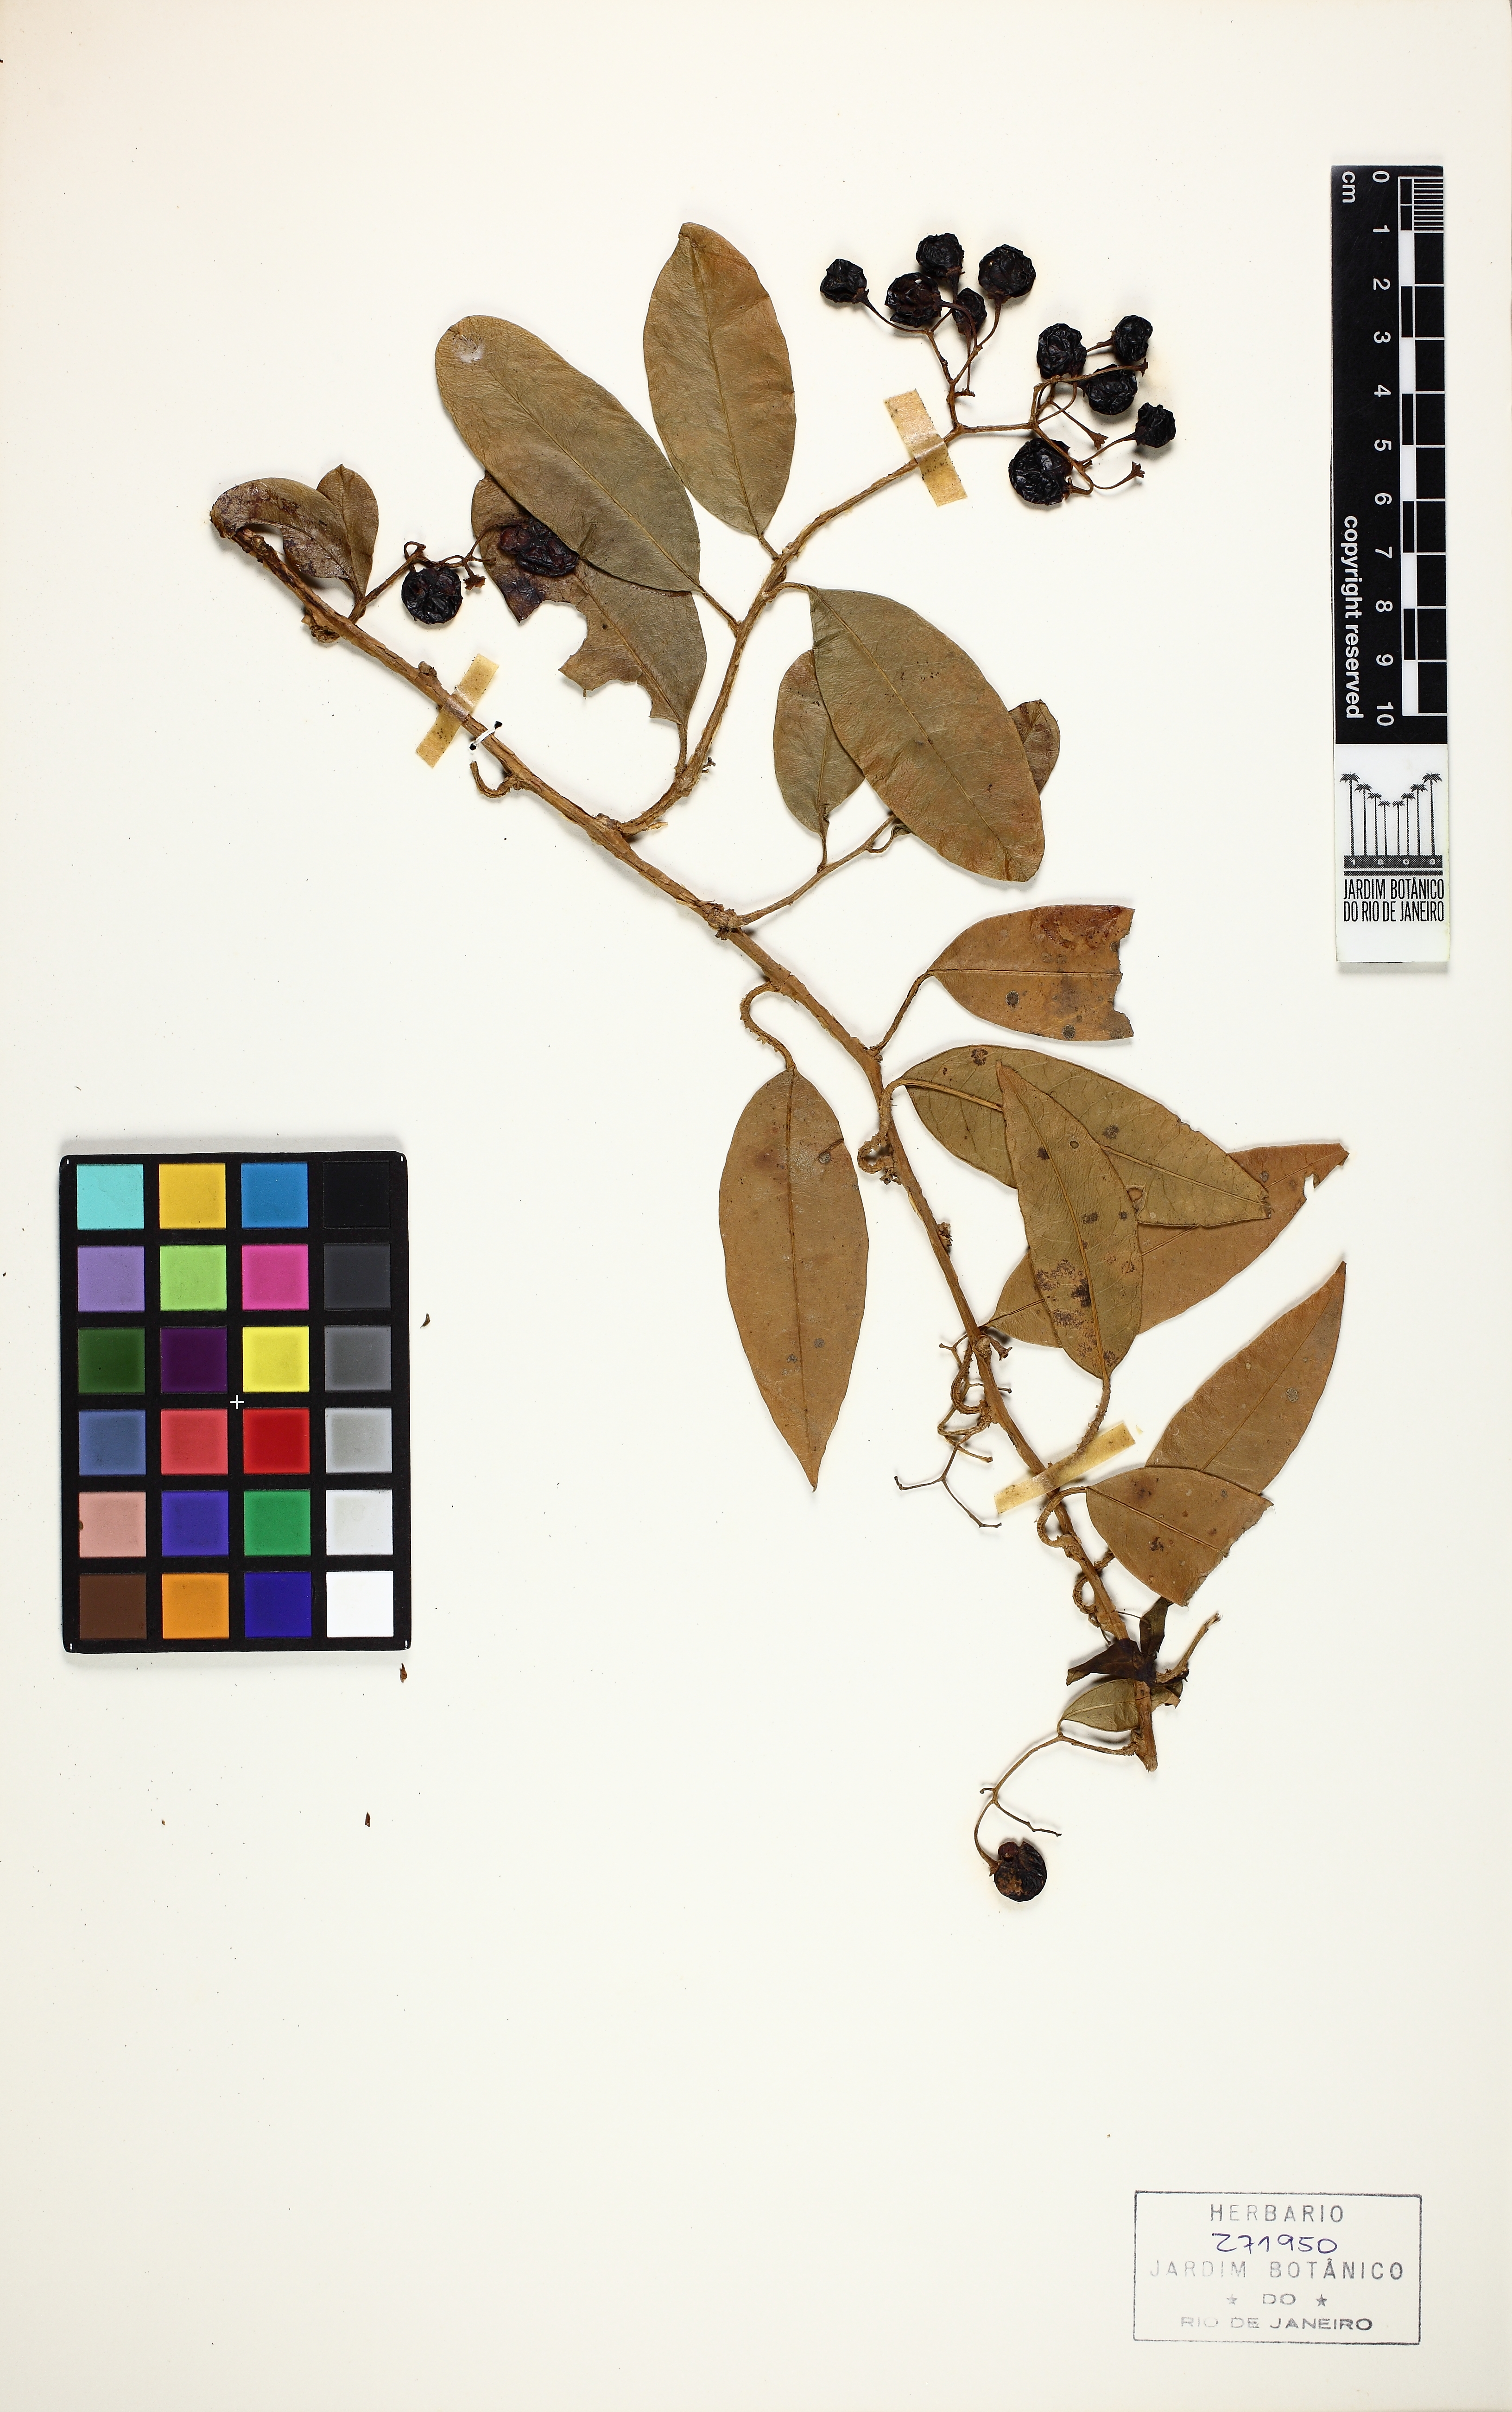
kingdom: Plantae
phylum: Tracheophyta
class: Magnoliopsida
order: Solanales
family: Solanaceae
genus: Solanum
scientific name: Solanum inodorum
